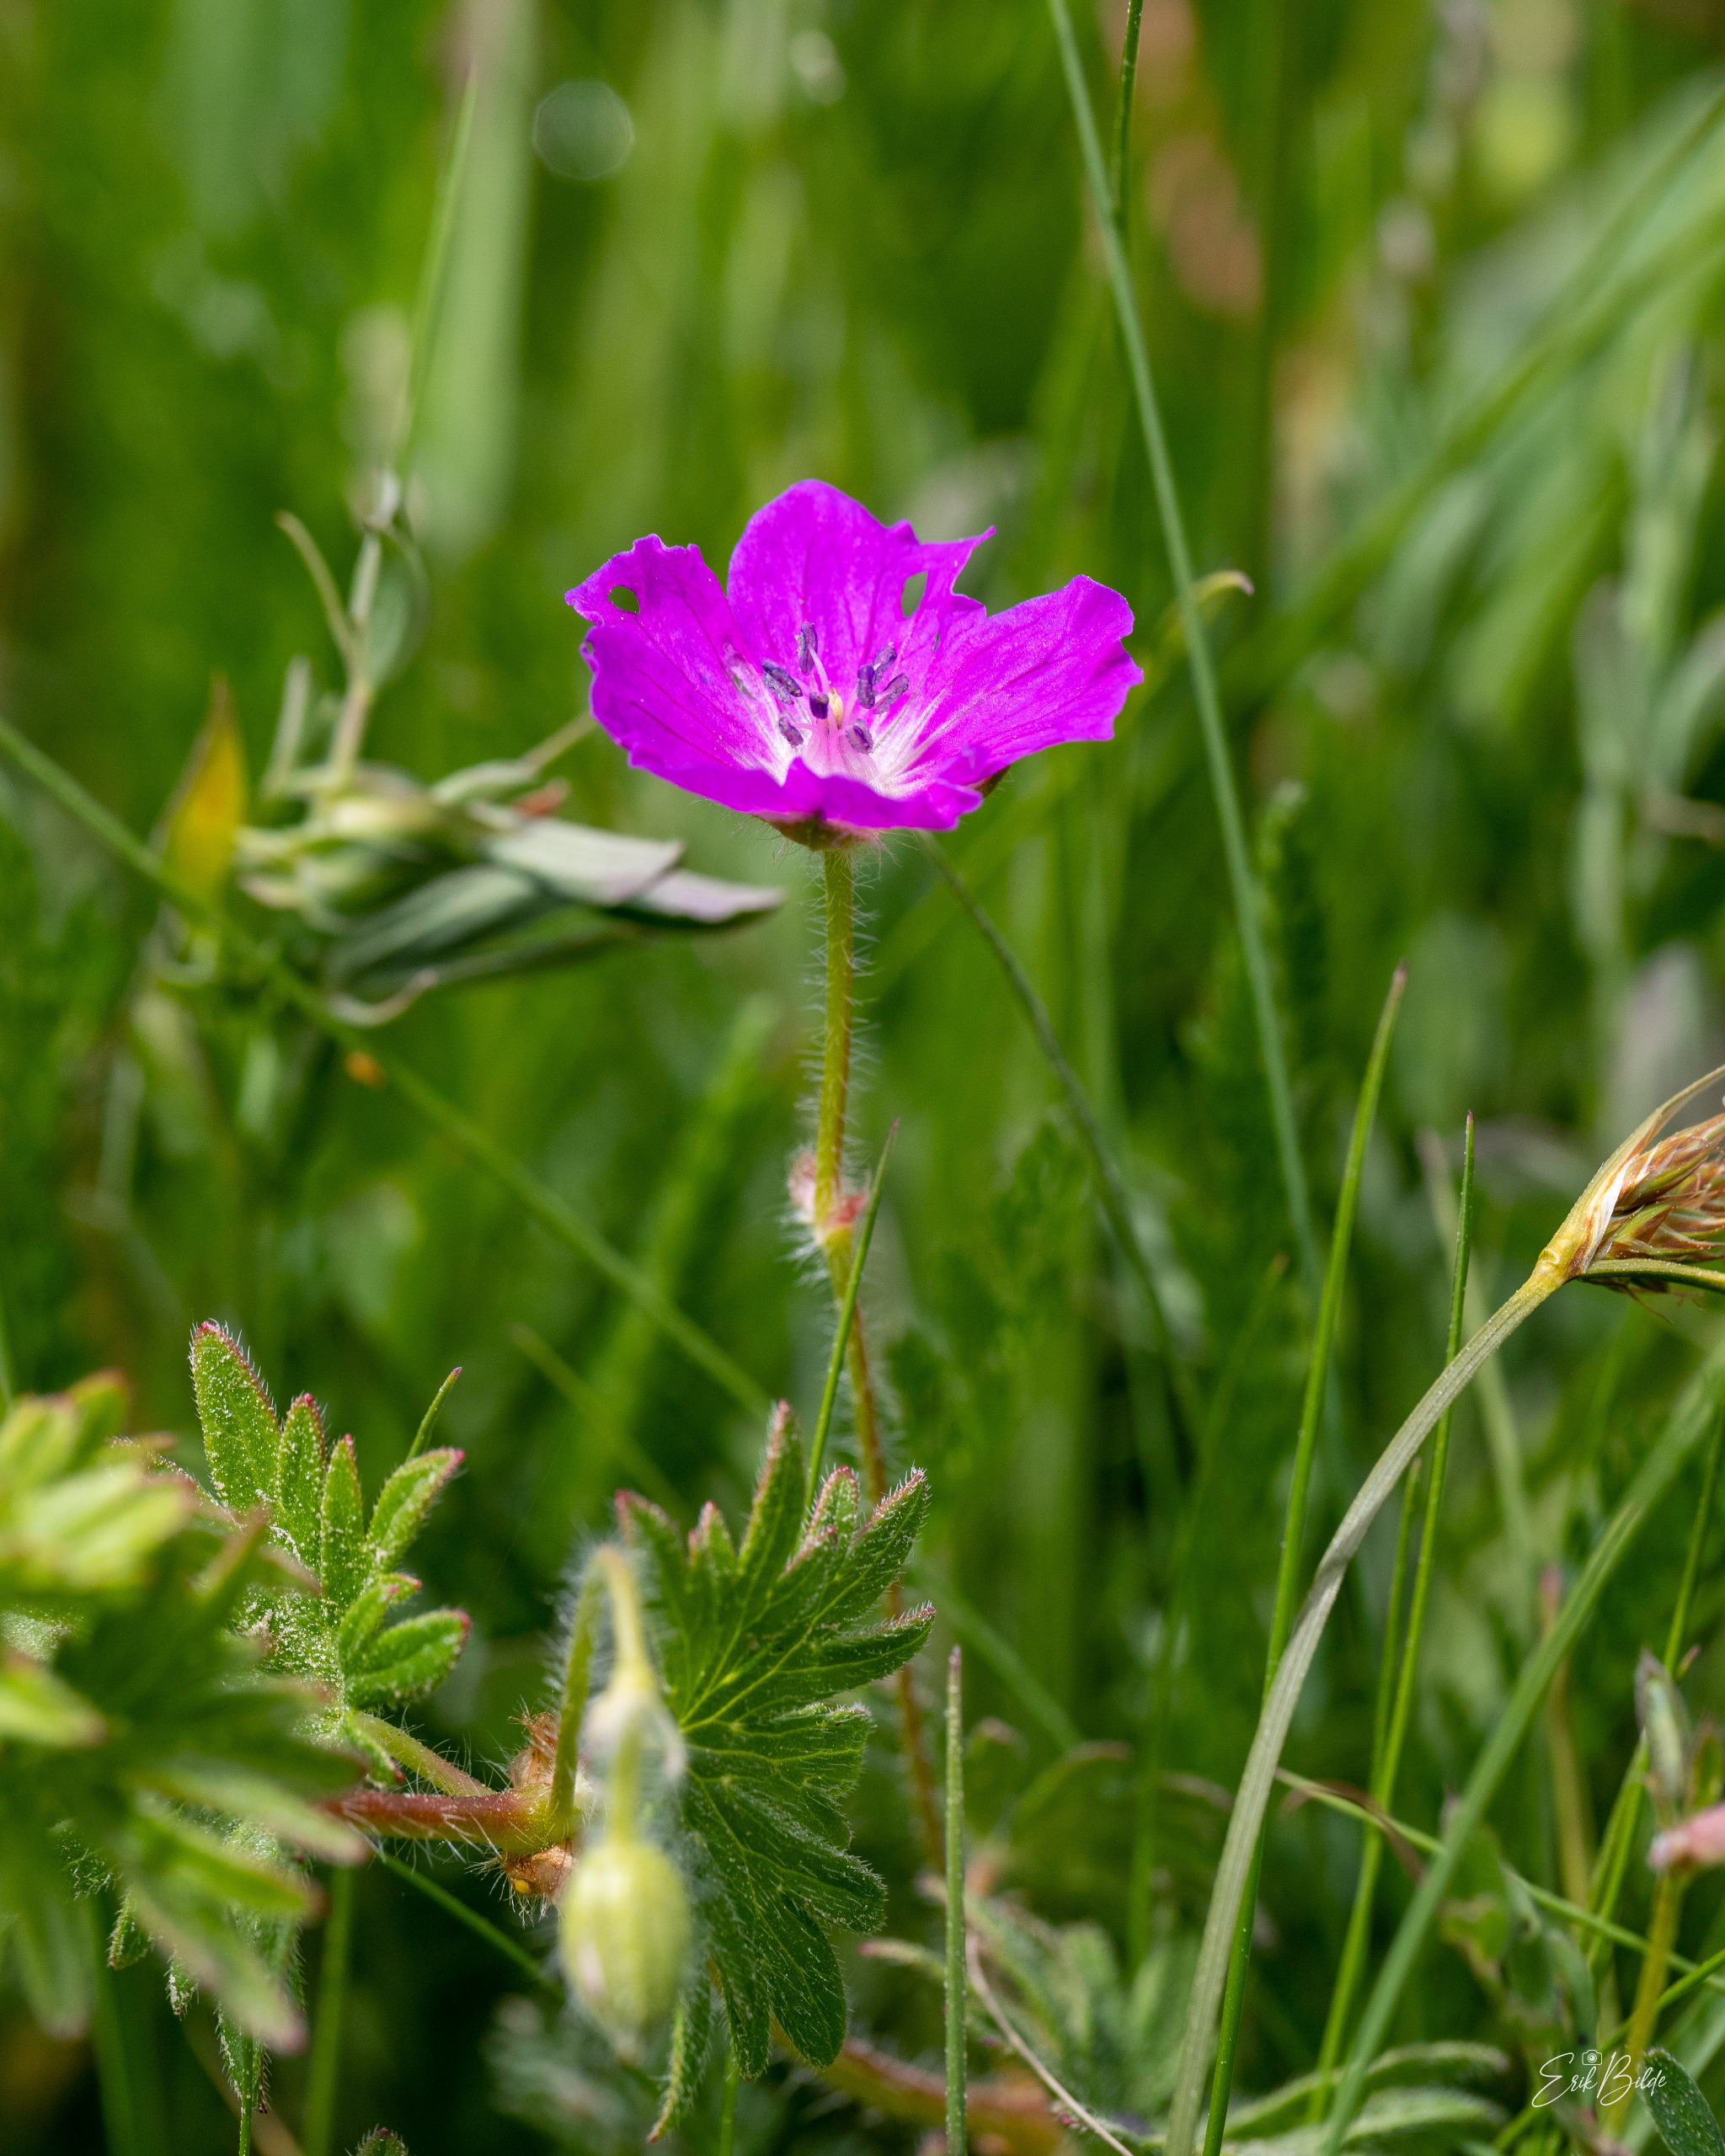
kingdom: Plantae
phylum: Tracheophyta
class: Magnoliopsida
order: Geraniales
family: Geraniaceae
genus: Geranium
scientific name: Geranium sanguineum
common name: Blodrød storkenæb
